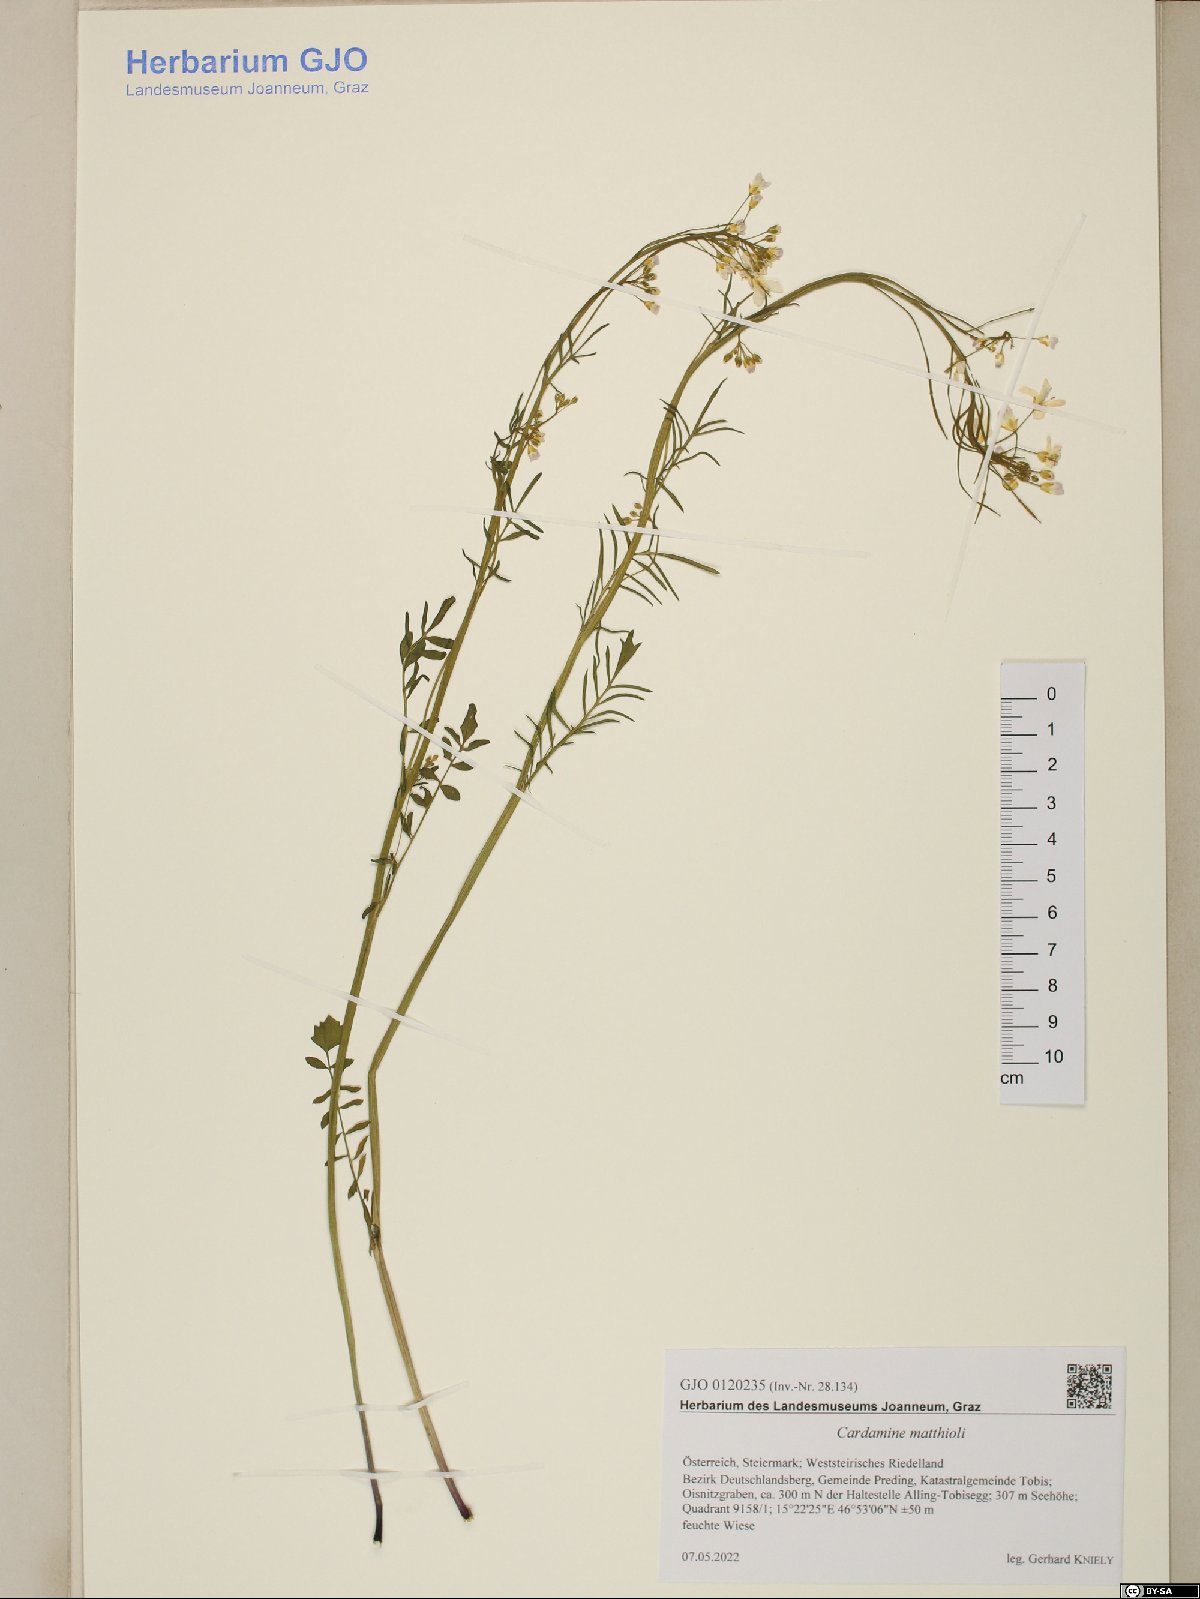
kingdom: Plantae
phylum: Tracheophyta
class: Magnoliopsida
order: Brassicales
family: Brassicaceae
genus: Cardamine
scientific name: Cardamine matthioli
